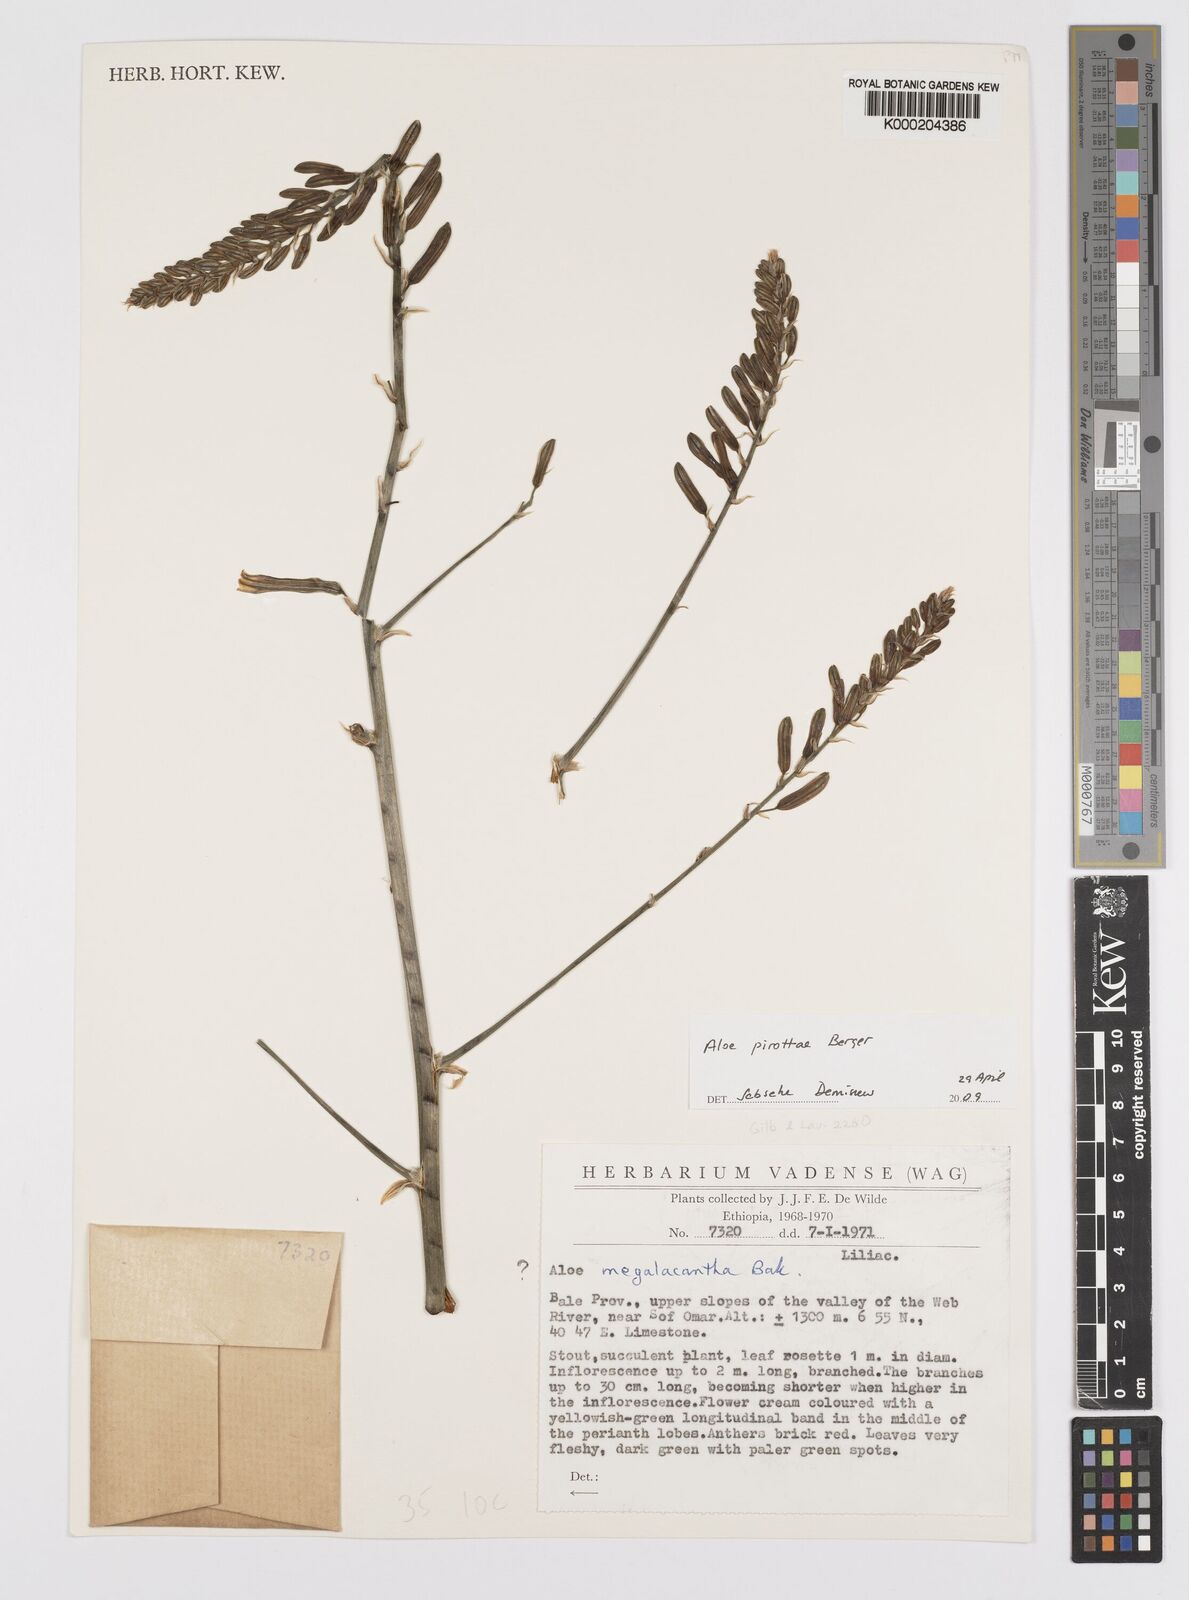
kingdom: Plantae
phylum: Tracheophyta
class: Liliopsida
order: Asparagales
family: Asphodelaceae
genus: Aloe
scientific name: Aloe pirottae
